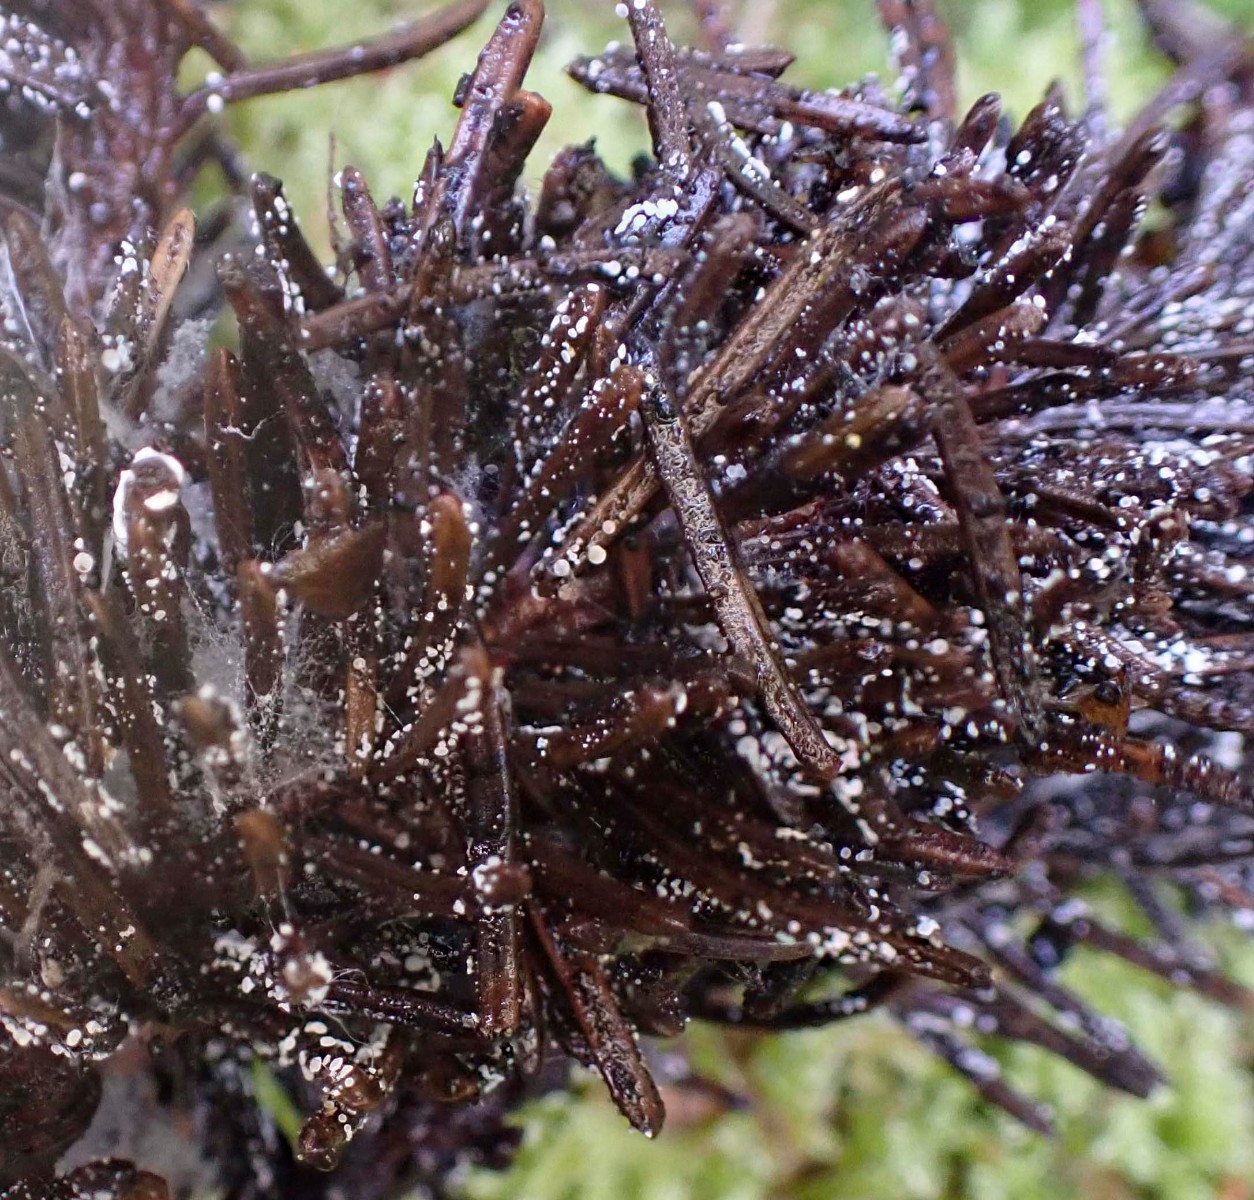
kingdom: Fungi
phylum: Ascomycota
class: Leotiomycetes
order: Helotiales
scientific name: Helotiales
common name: stilkskiveordenen
